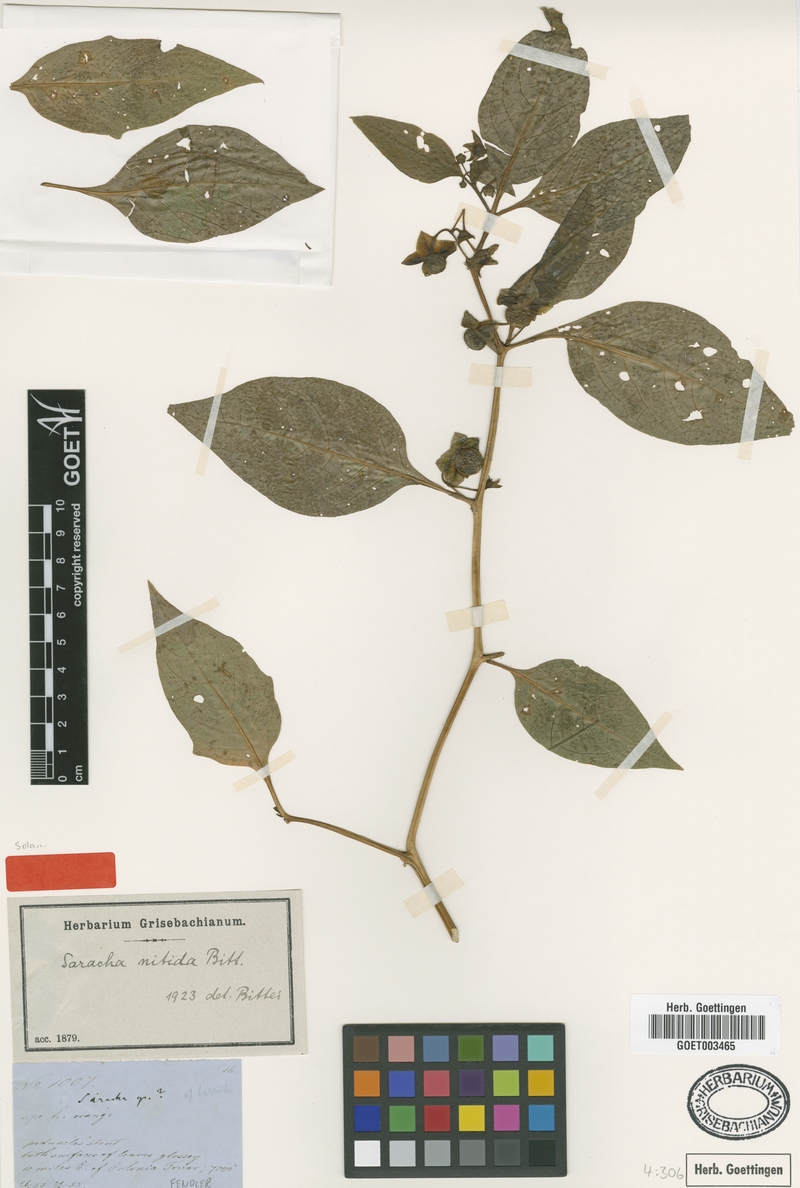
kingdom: Plantae
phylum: Tracheophyta
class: Magnoliopsida
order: Solanales
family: Solanaceae
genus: Jaltomata
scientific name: Jaltomata nitida
